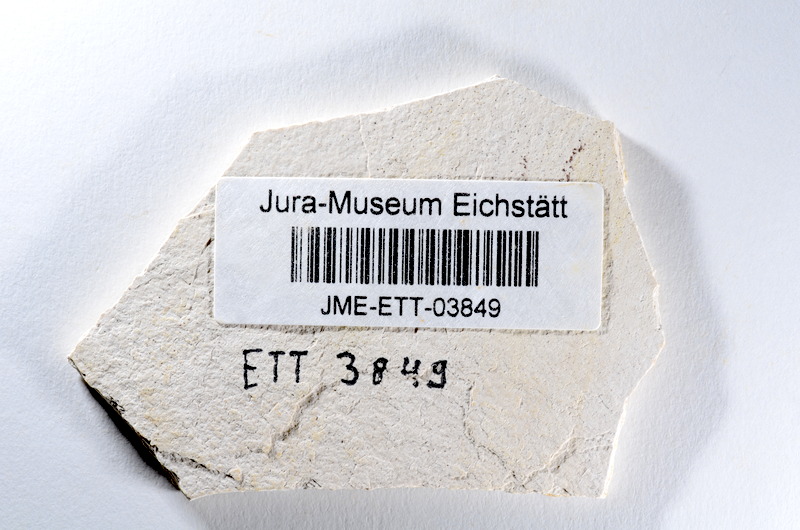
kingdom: Animalia
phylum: Chordata
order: Salmoniformes
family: Orthogonikleithridae
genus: Orthogonikleithrus
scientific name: Orthogonikleithrus hoelli
